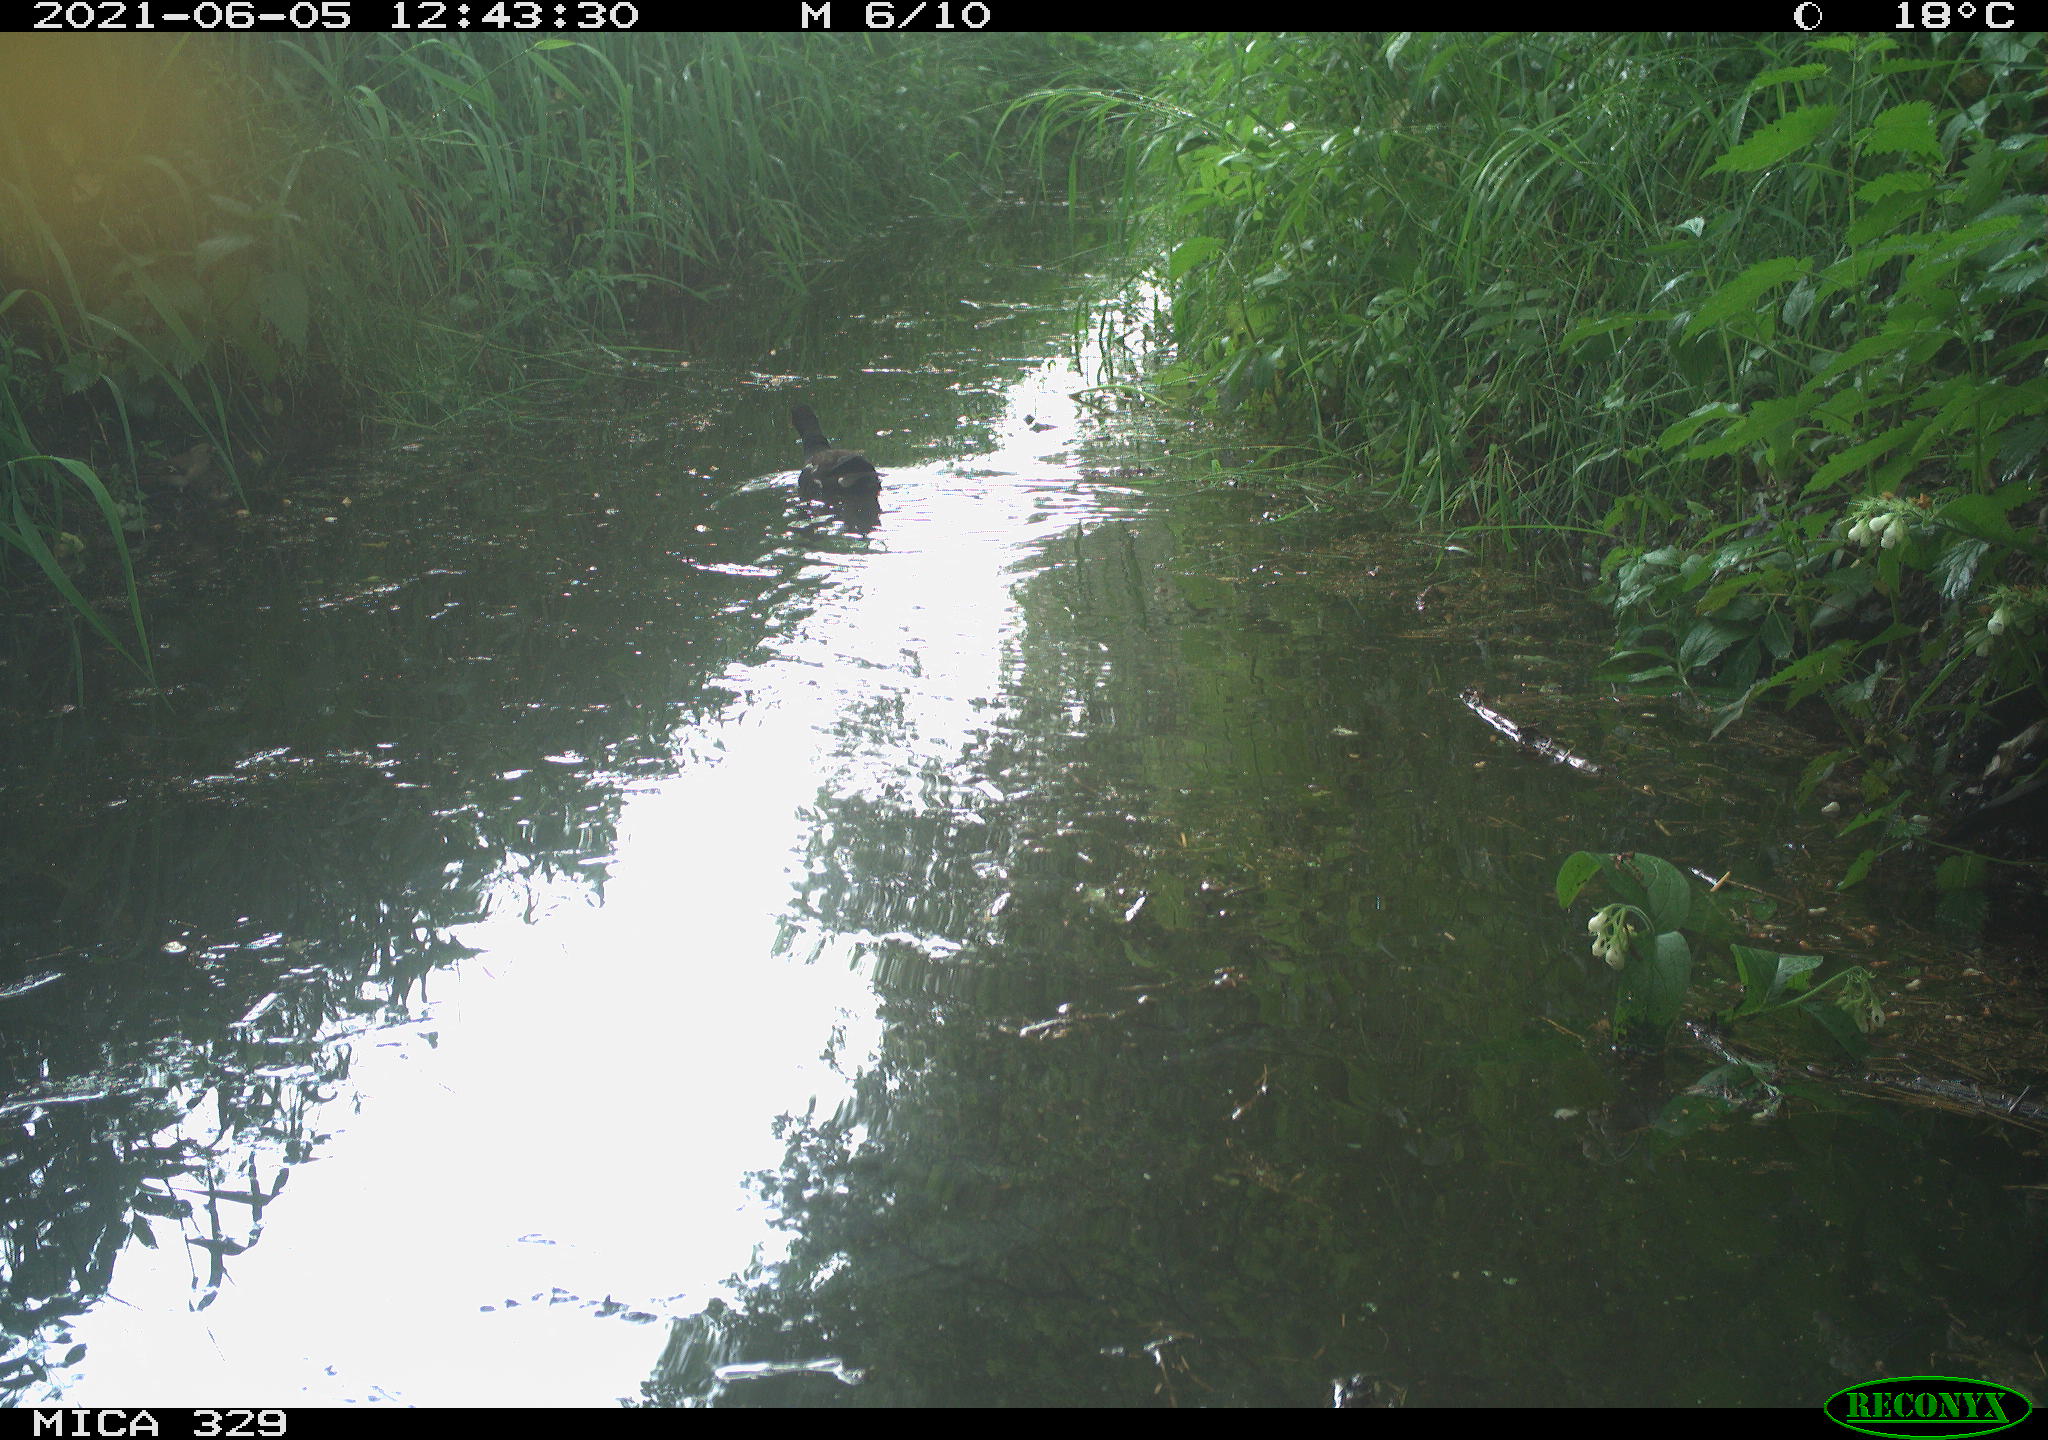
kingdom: Animalia
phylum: Chordata
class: Aves
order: Gruiformes
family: Rallidae
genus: Gallinula
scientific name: Gallinula chloropus
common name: Common moorhen
